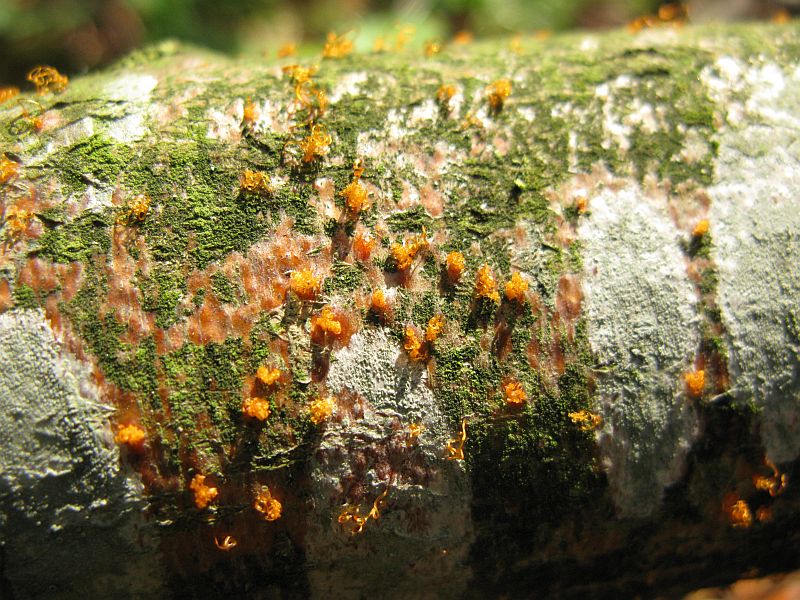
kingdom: Fungi
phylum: Ascomycota
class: Sordariomycetes
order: Xylariales
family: Diatrypaceae
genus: Eutypella
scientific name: Eutypella quaternata
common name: bøge-korsprik
